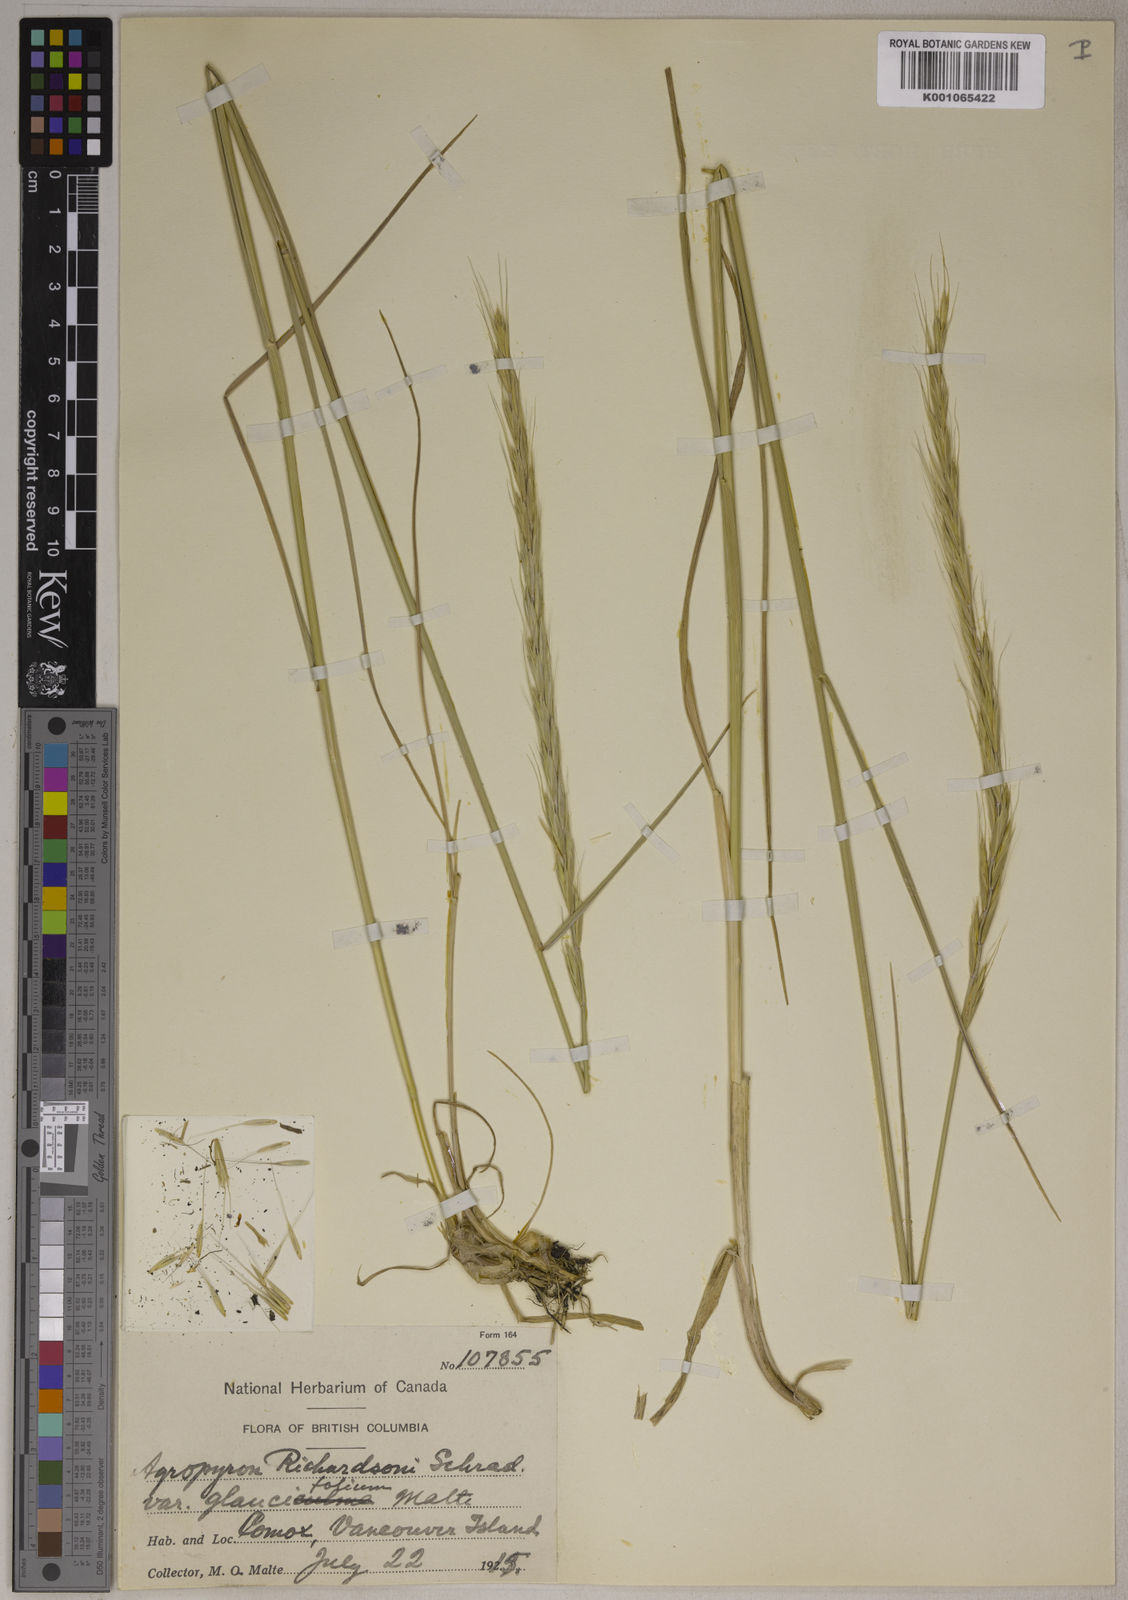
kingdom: Plantae
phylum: Tracheophyta
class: Liliopsida
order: Poales
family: Poaceae
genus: Elymus
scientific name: Elymus
